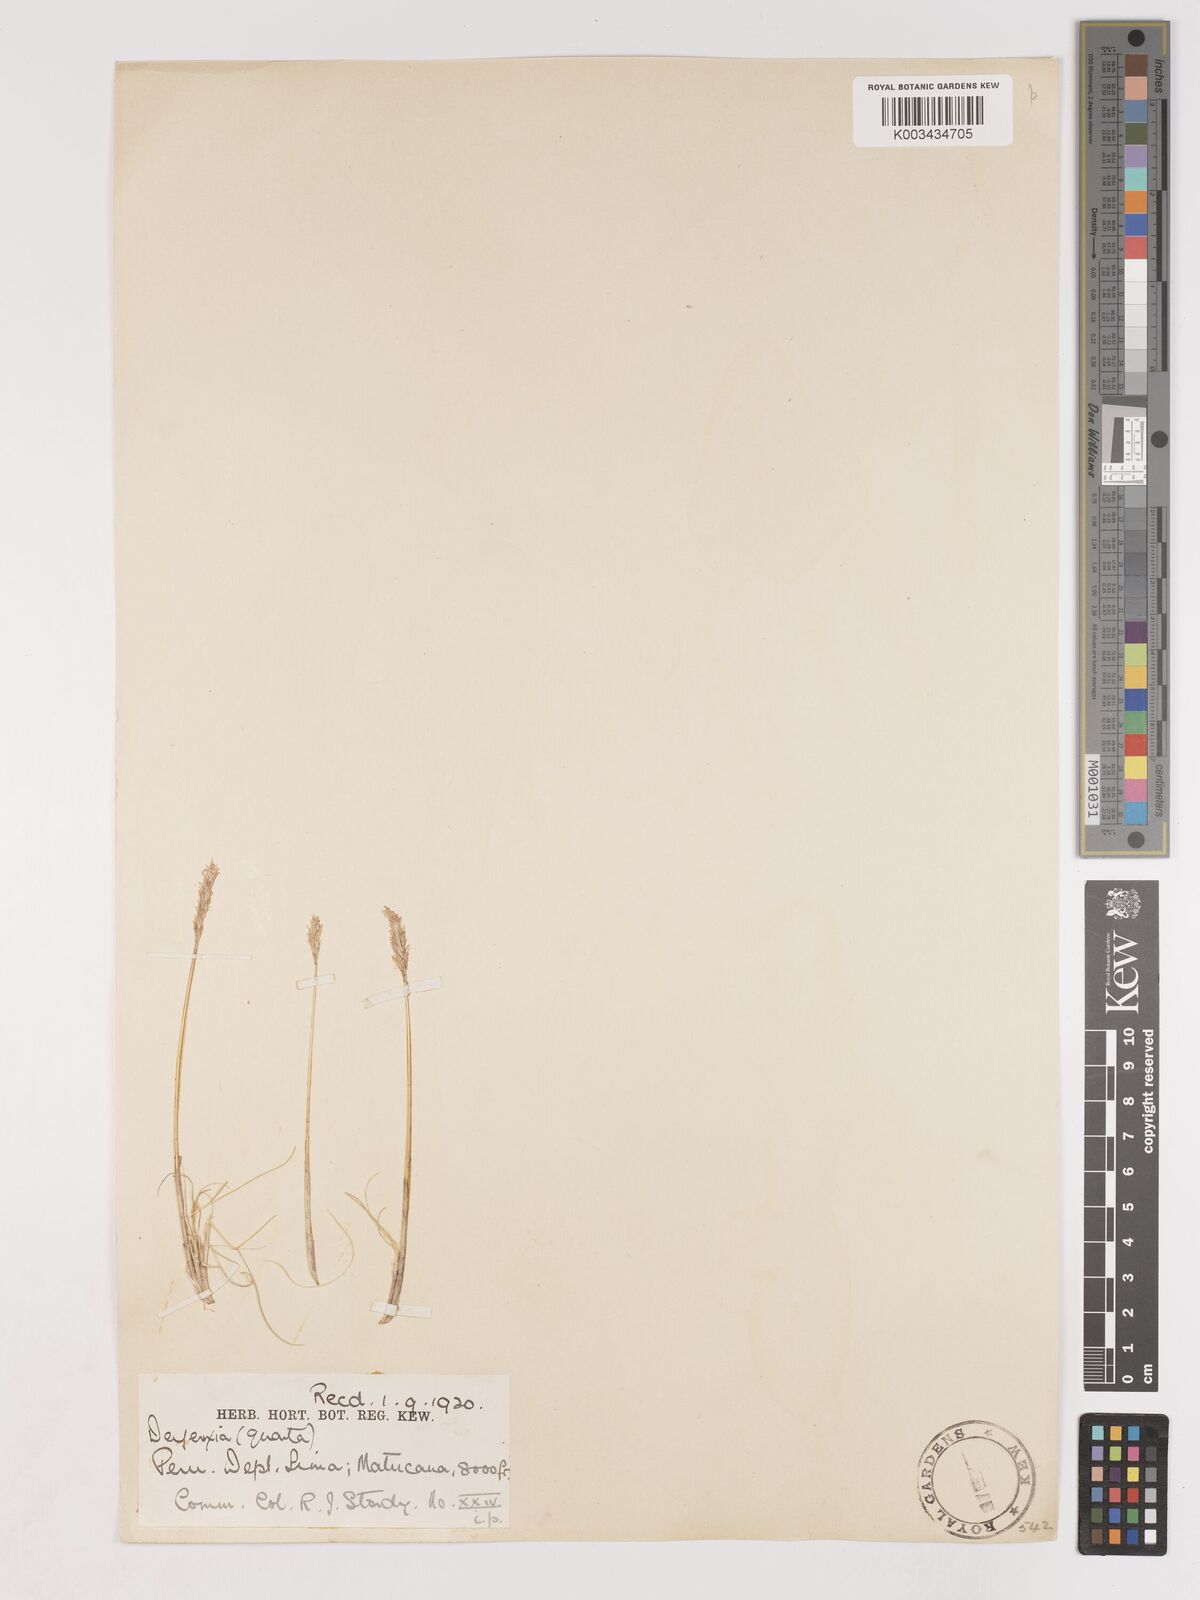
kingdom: Plantae
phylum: Tracheophyta
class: Liliopsida
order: Poales
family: Poaceae
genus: Cinnagrostis
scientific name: Cinnagrostis vicunarum
